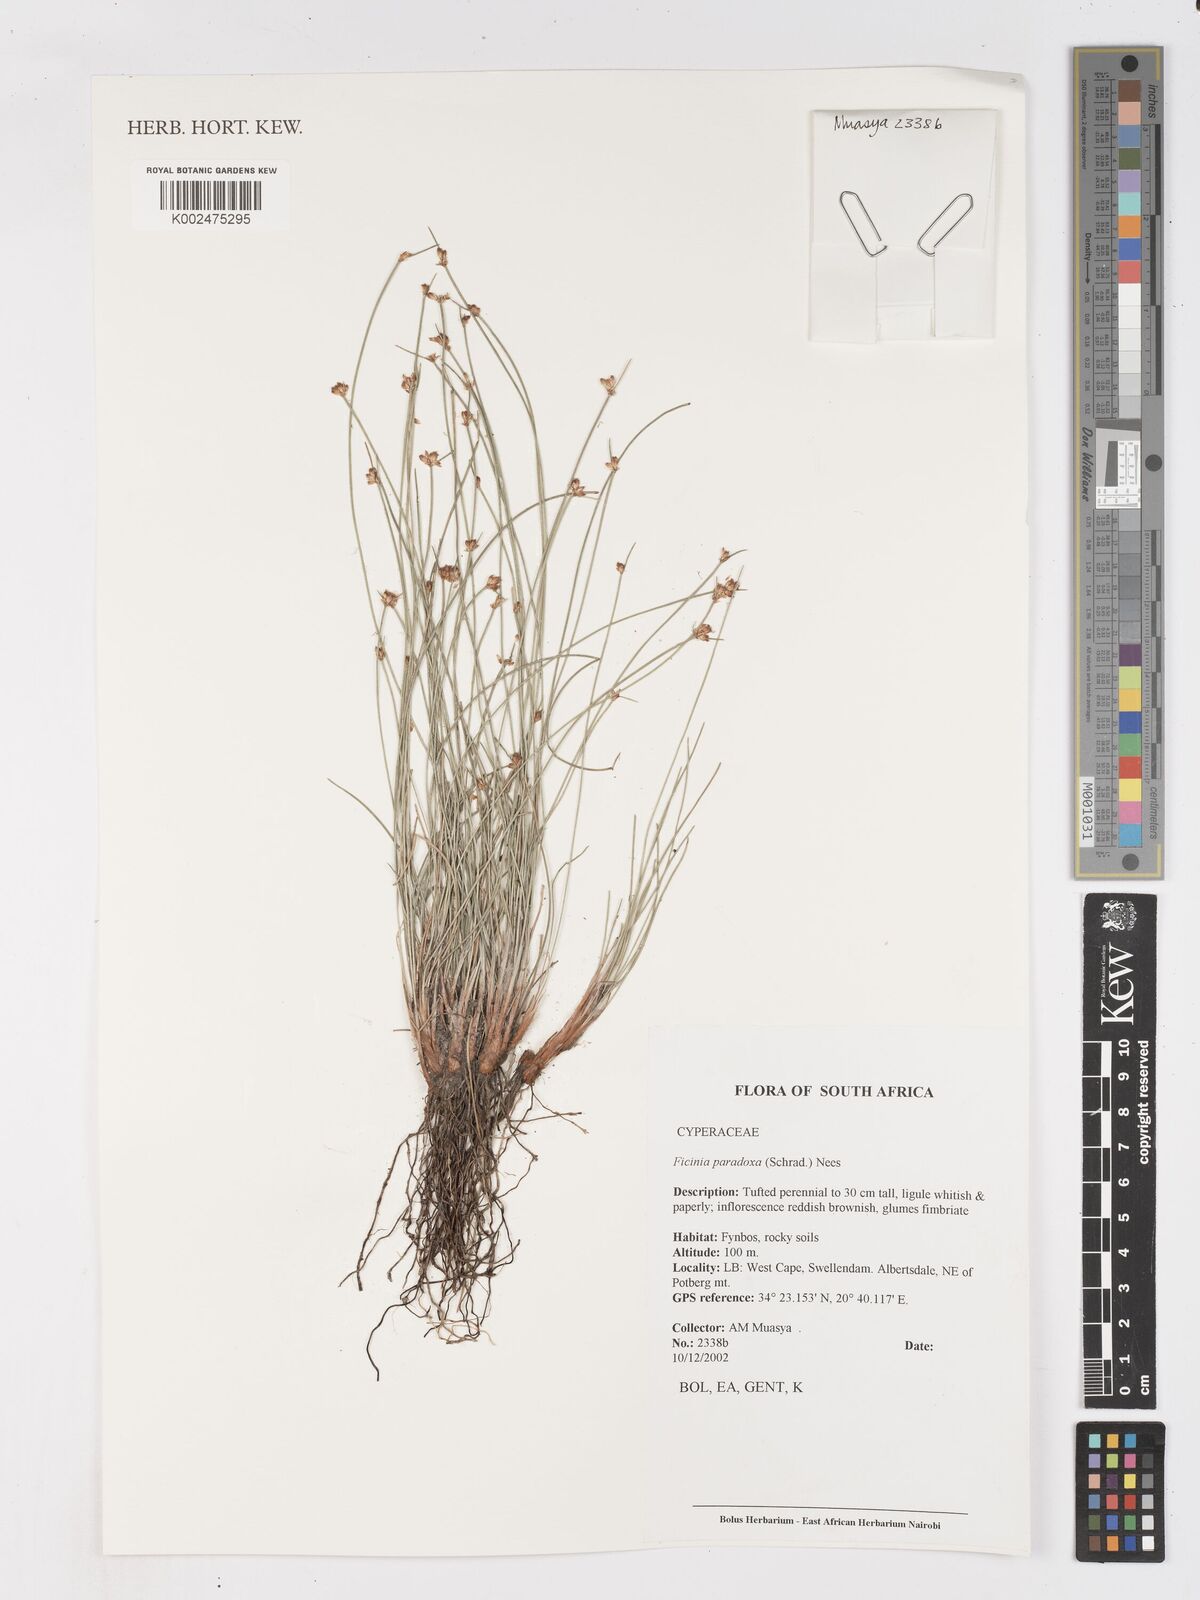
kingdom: Plantae
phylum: Tracheophyta
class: Liliopsida
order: Poales
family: Cyperaceae
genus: Ficinia
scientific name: Ficinia paradoxa
